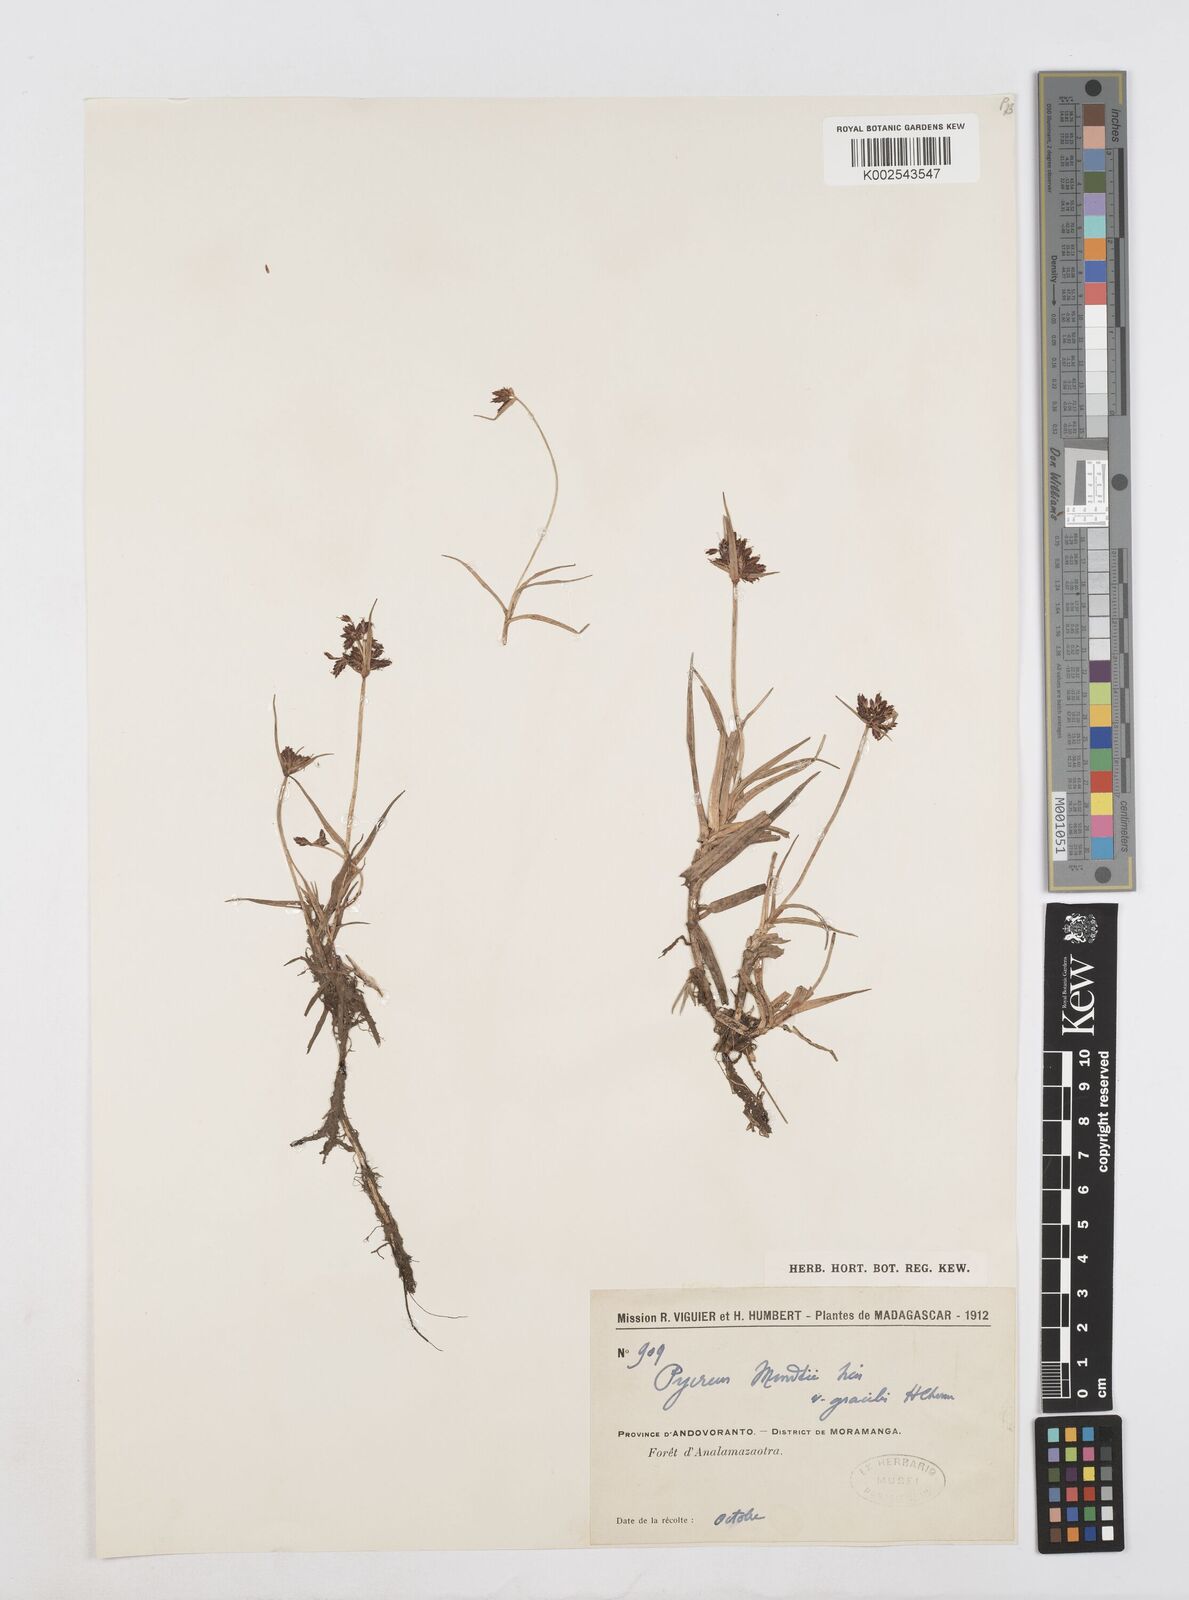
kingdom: Plantae
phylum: Tracheophyta
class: Liliopsida
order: Poales
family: Cyperaceae
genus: Cyperus
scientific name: Cyperus mundii
